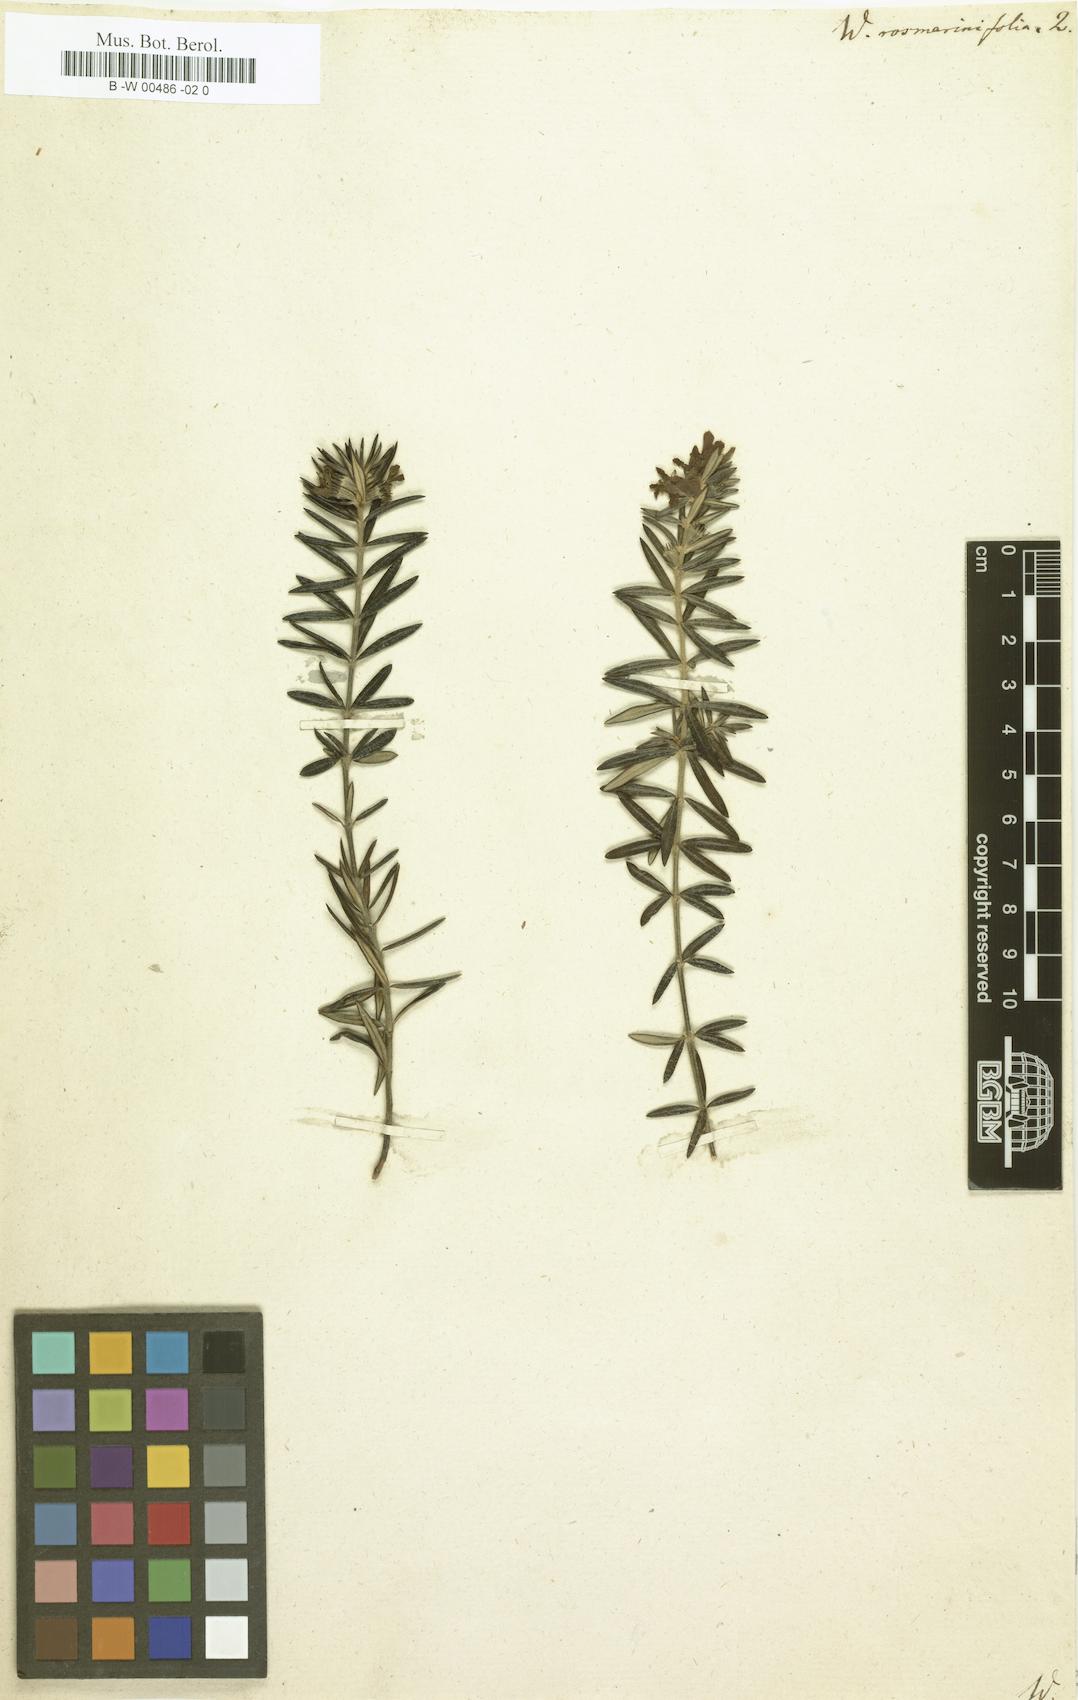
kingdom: Plantae
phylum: Tracheophyta
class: Magnoliopsida
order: Lamiales
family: Lamiaceae
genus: Westringia
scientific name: Westringia fruticosa
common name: Coastal-rosemary
